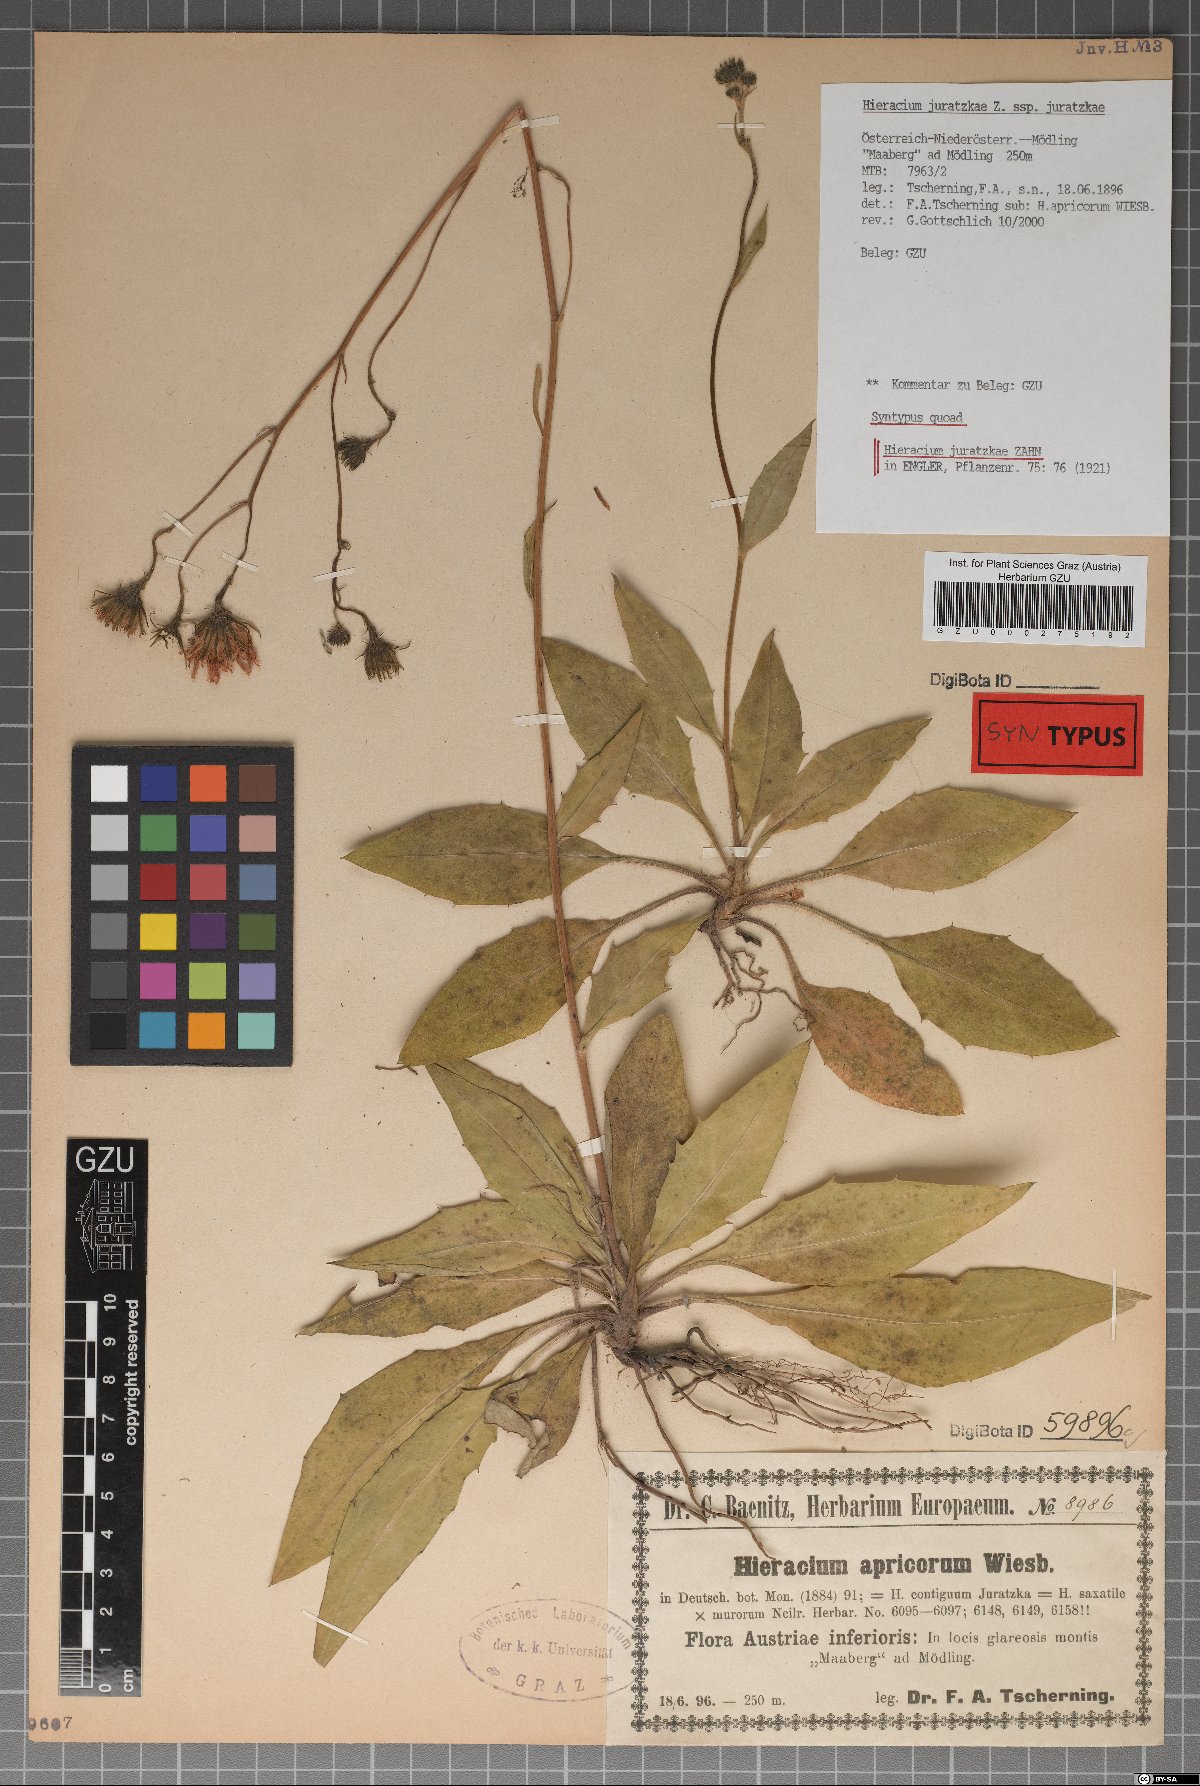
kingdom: Plantae
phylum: Tracheophyta
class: Magnoliopsida
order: Asterales
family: Asteraceae
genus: Hieracium
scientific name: Hieracium juratzkae
